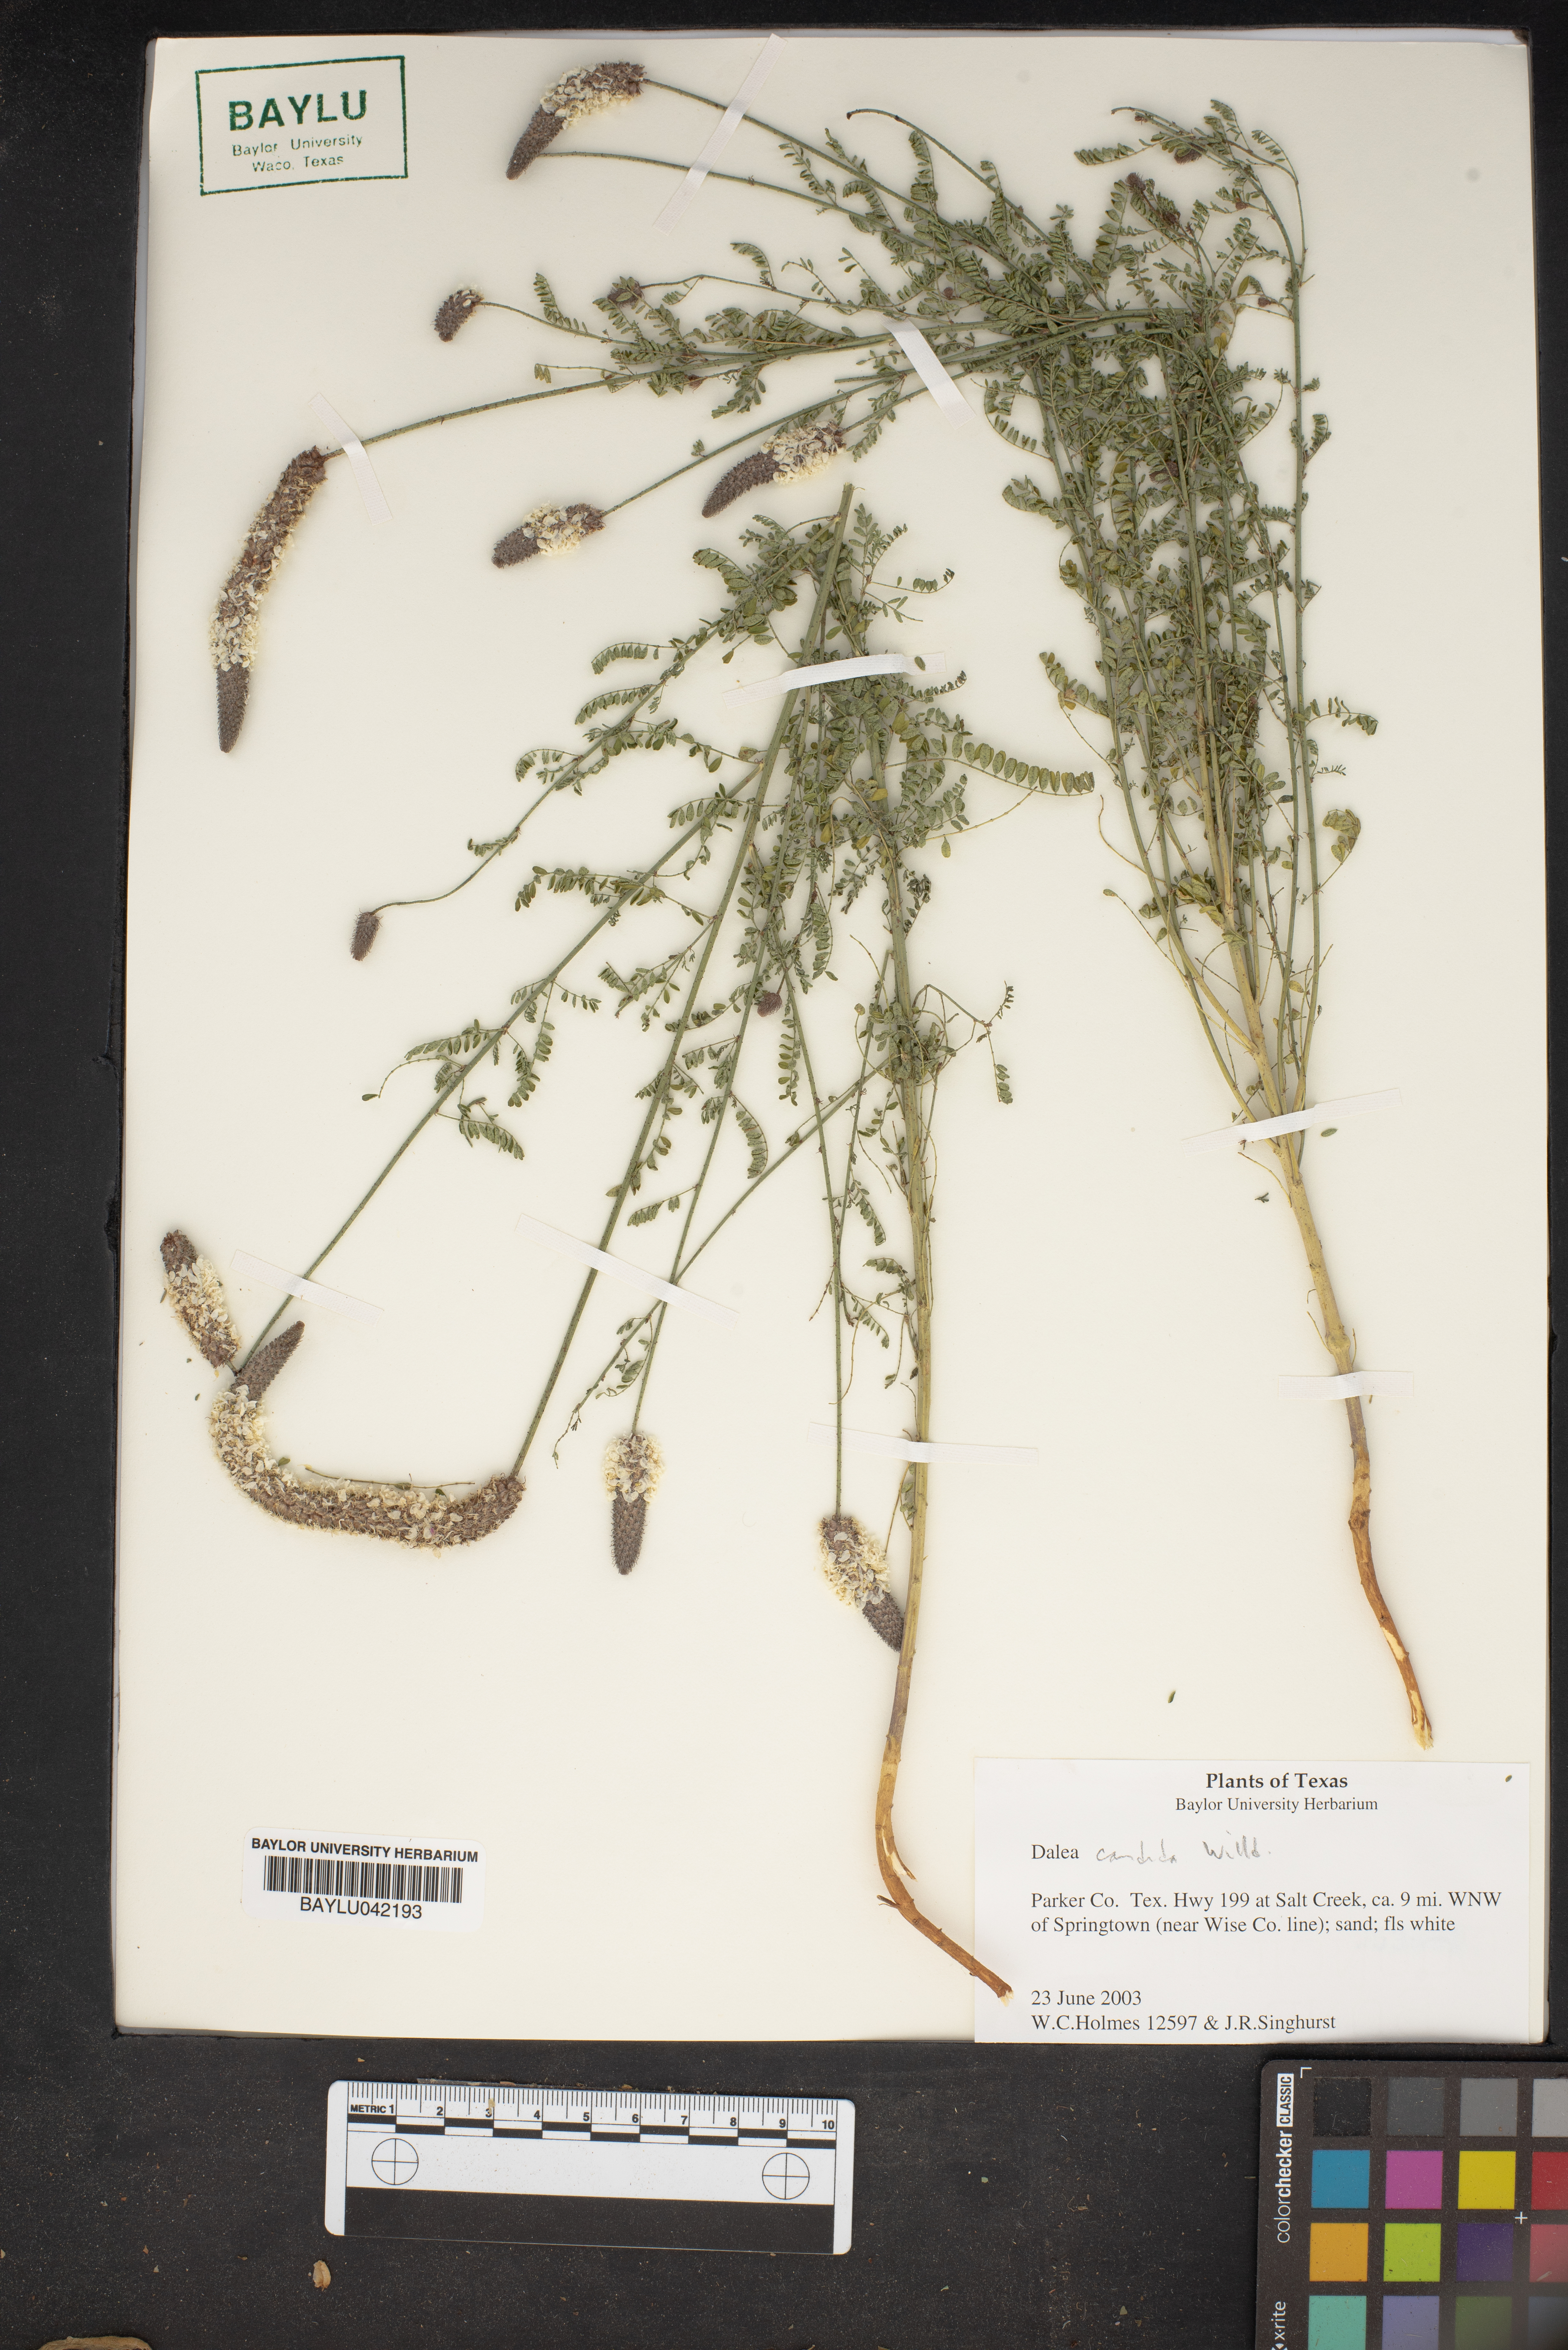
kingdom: Plantae
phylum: Tracheophyta
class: Magnoliopsida
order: Fabales
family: Fabaceae
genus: Dalea
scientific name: Dalea candida
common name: White prairie-clover
